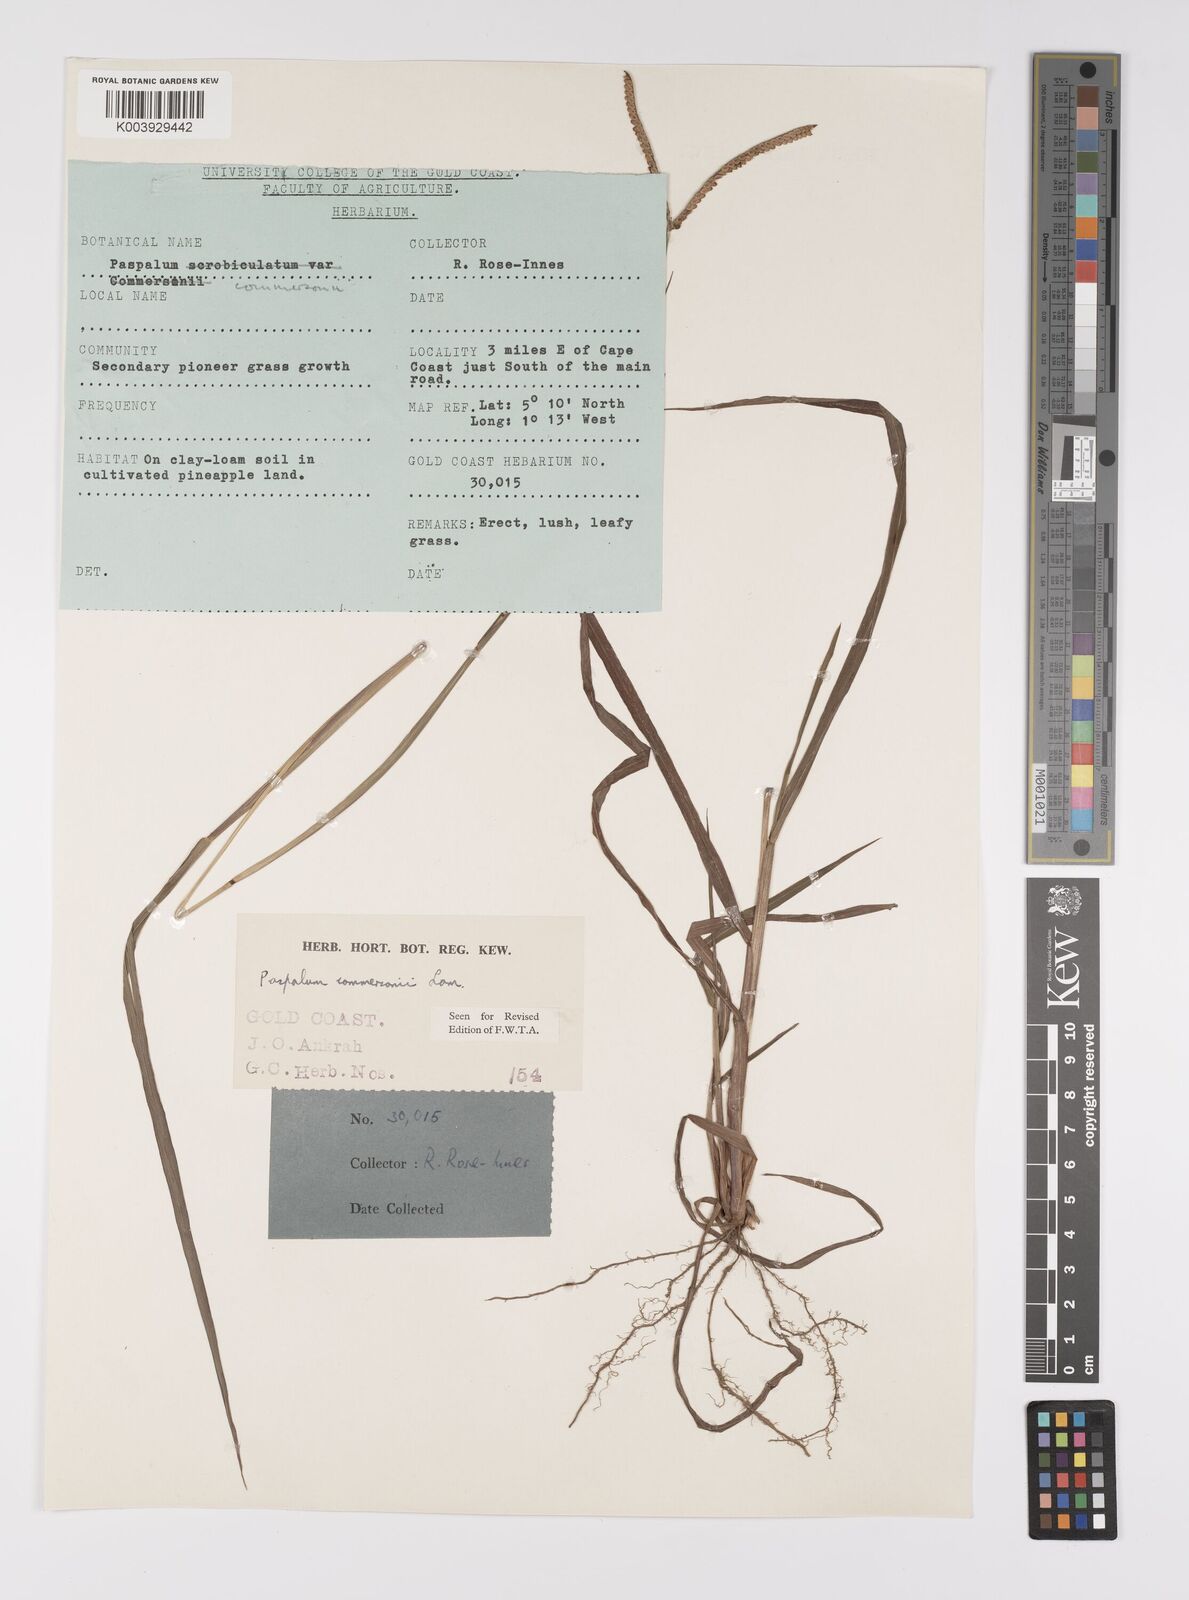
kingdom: Plantae
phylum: Tracheophyta
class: Liliopsida
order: Poales
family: Poaceae
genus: Paspalum
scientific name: Paspalum scrobiculatum
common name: Kodo millet
